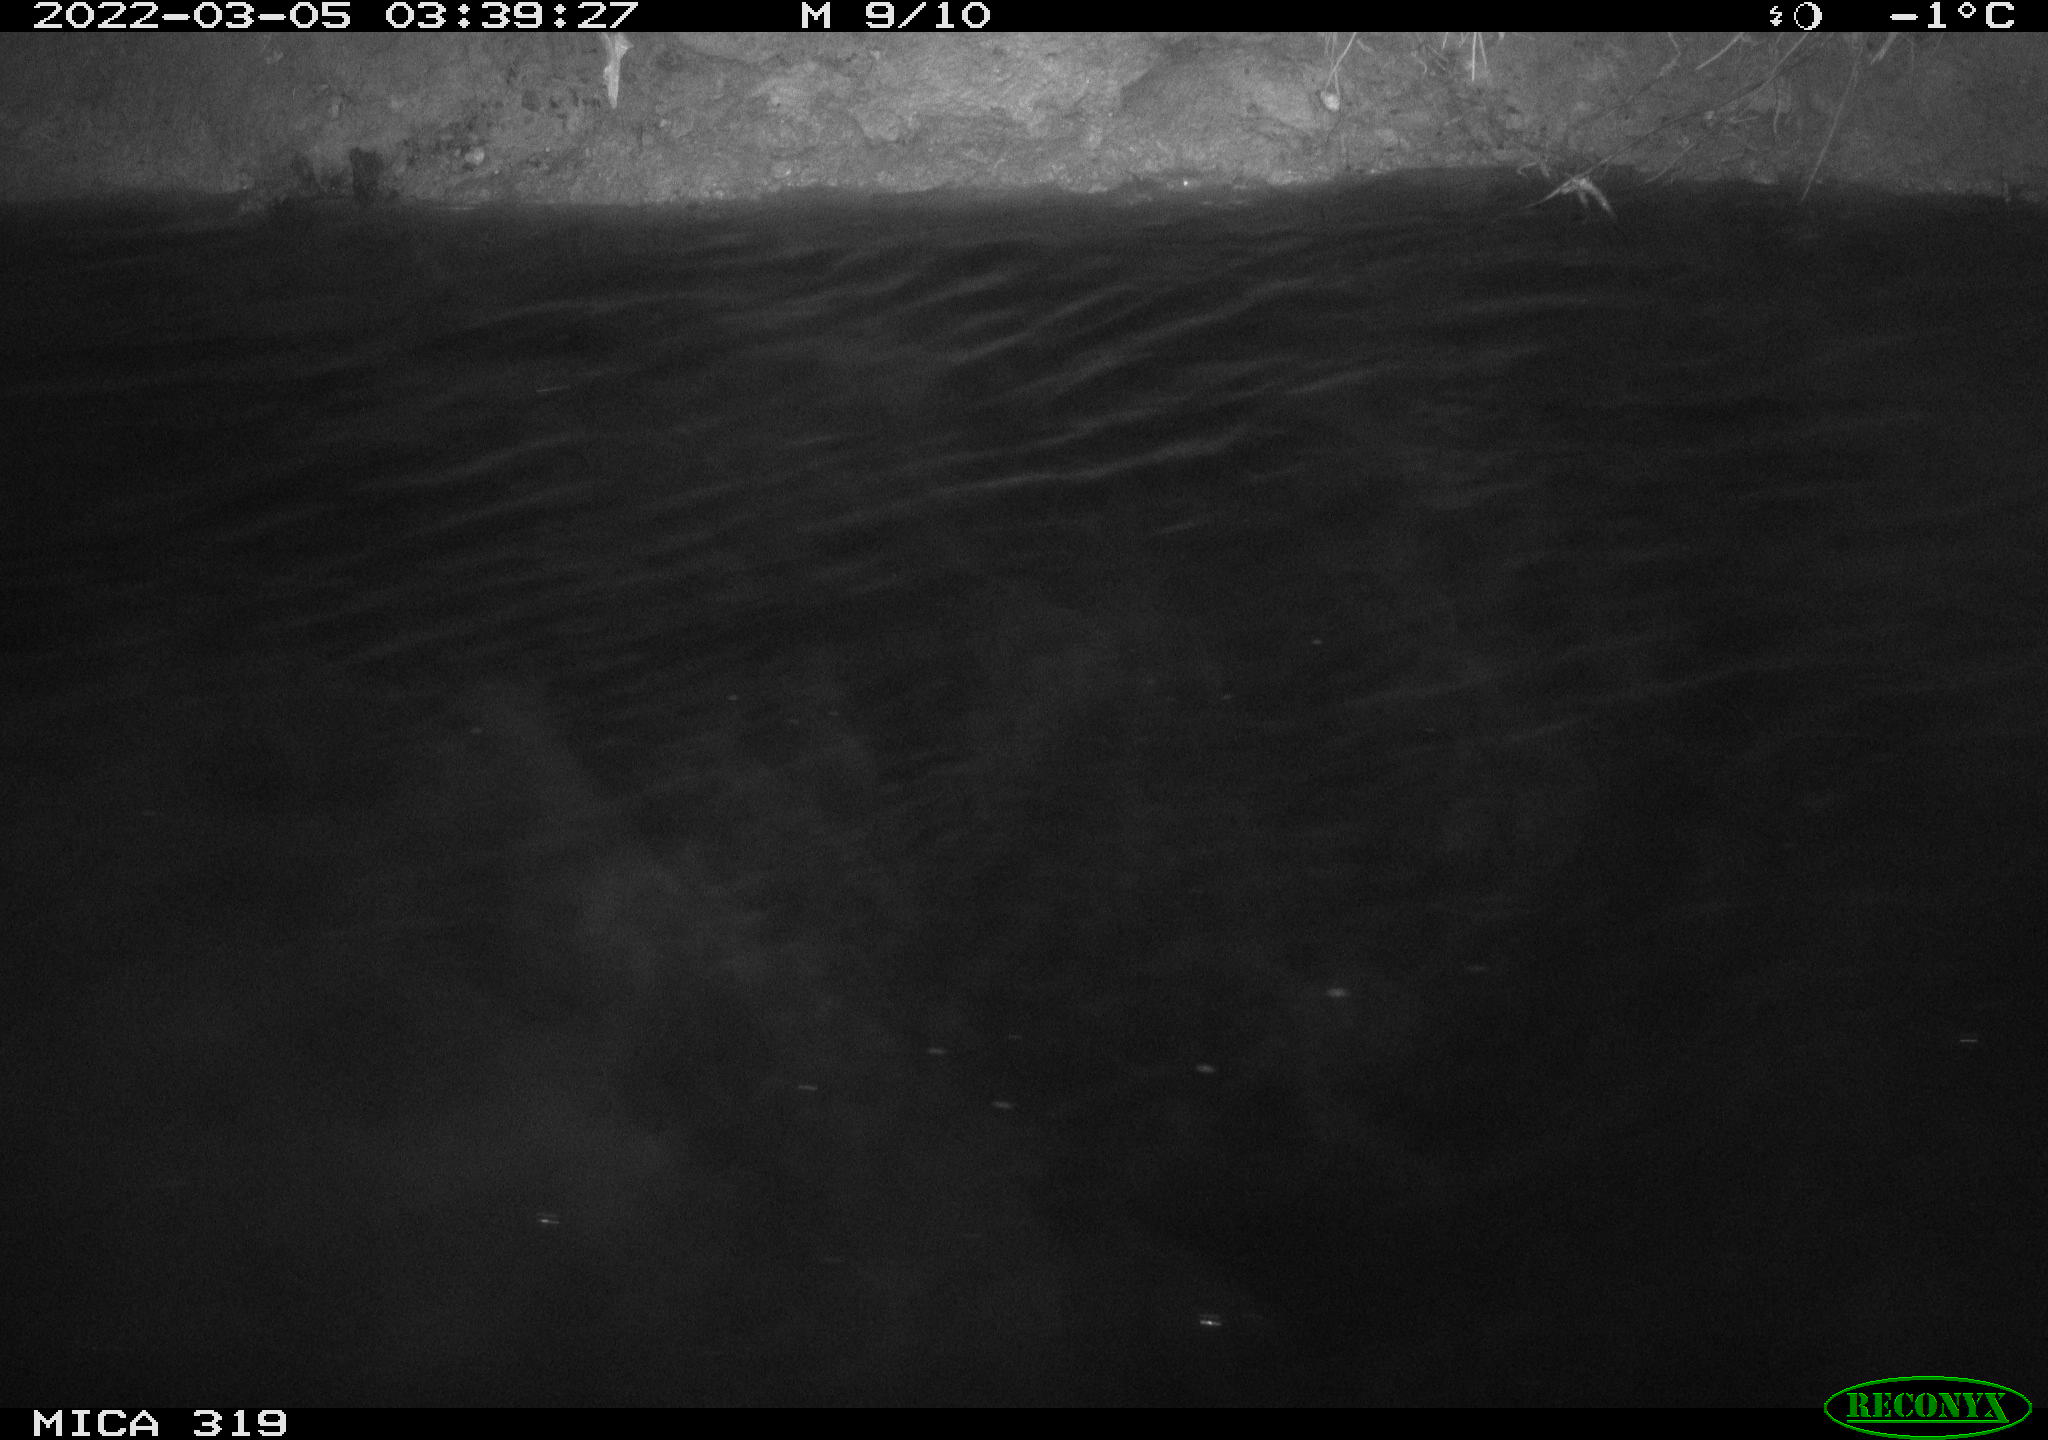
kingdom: Animalia
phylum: Chordata
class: Aves
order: Anseriformes
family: Anatidae
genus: Anas
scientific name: Anas platyrhynchos
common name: Mallard
